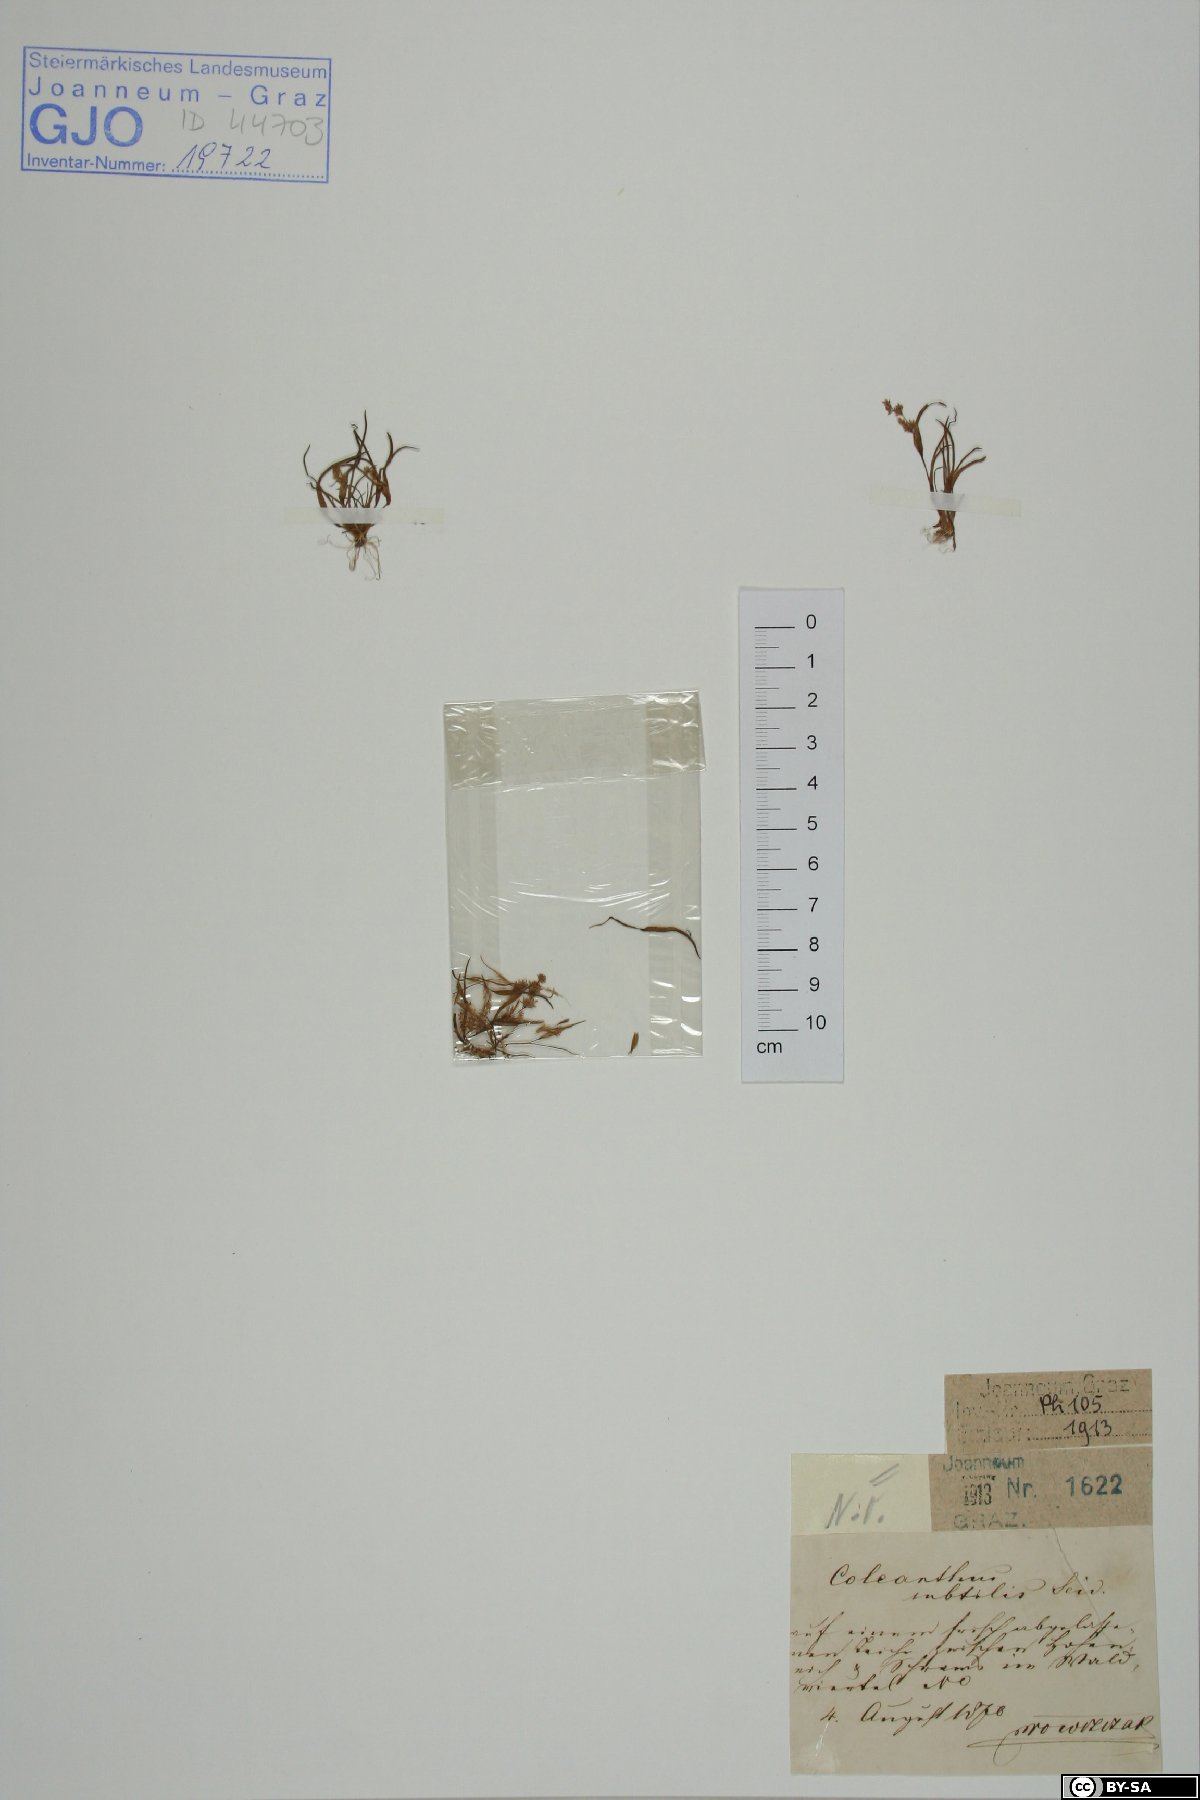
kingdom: Plantae
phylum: Tracheophyta
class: Liliopsida
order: Poales
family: Poaceae
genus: Coleanthus
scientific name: Coleanthus subtilis
